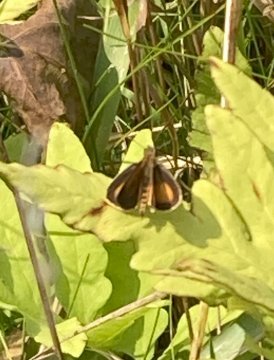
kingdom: Animalia
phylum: Arthropoda
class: Insecta
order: Lepidoptera
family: Hesperiidae
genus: Ancyloxypha
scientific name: Ancyloxypha numitor
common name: Least Skipper
